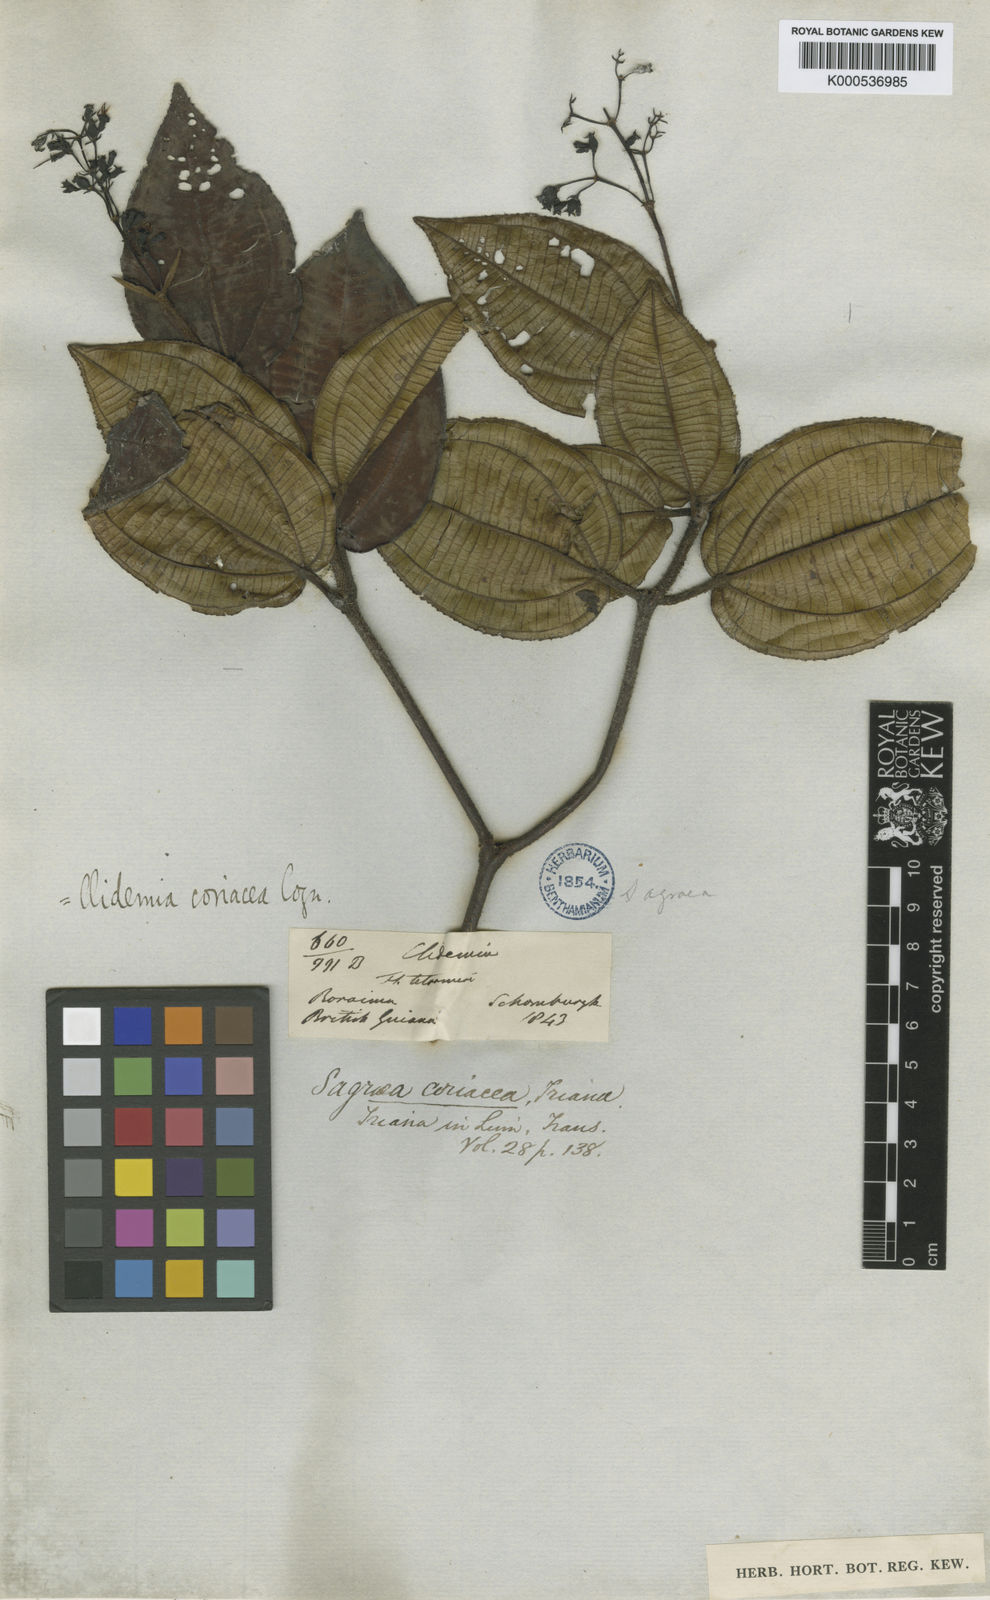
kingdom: Plantae
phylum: Tracheophyta
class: Magnoliopsida
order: Myrtales
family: Melastomataceae
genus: Miconia
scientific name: Miconia nebulensis
